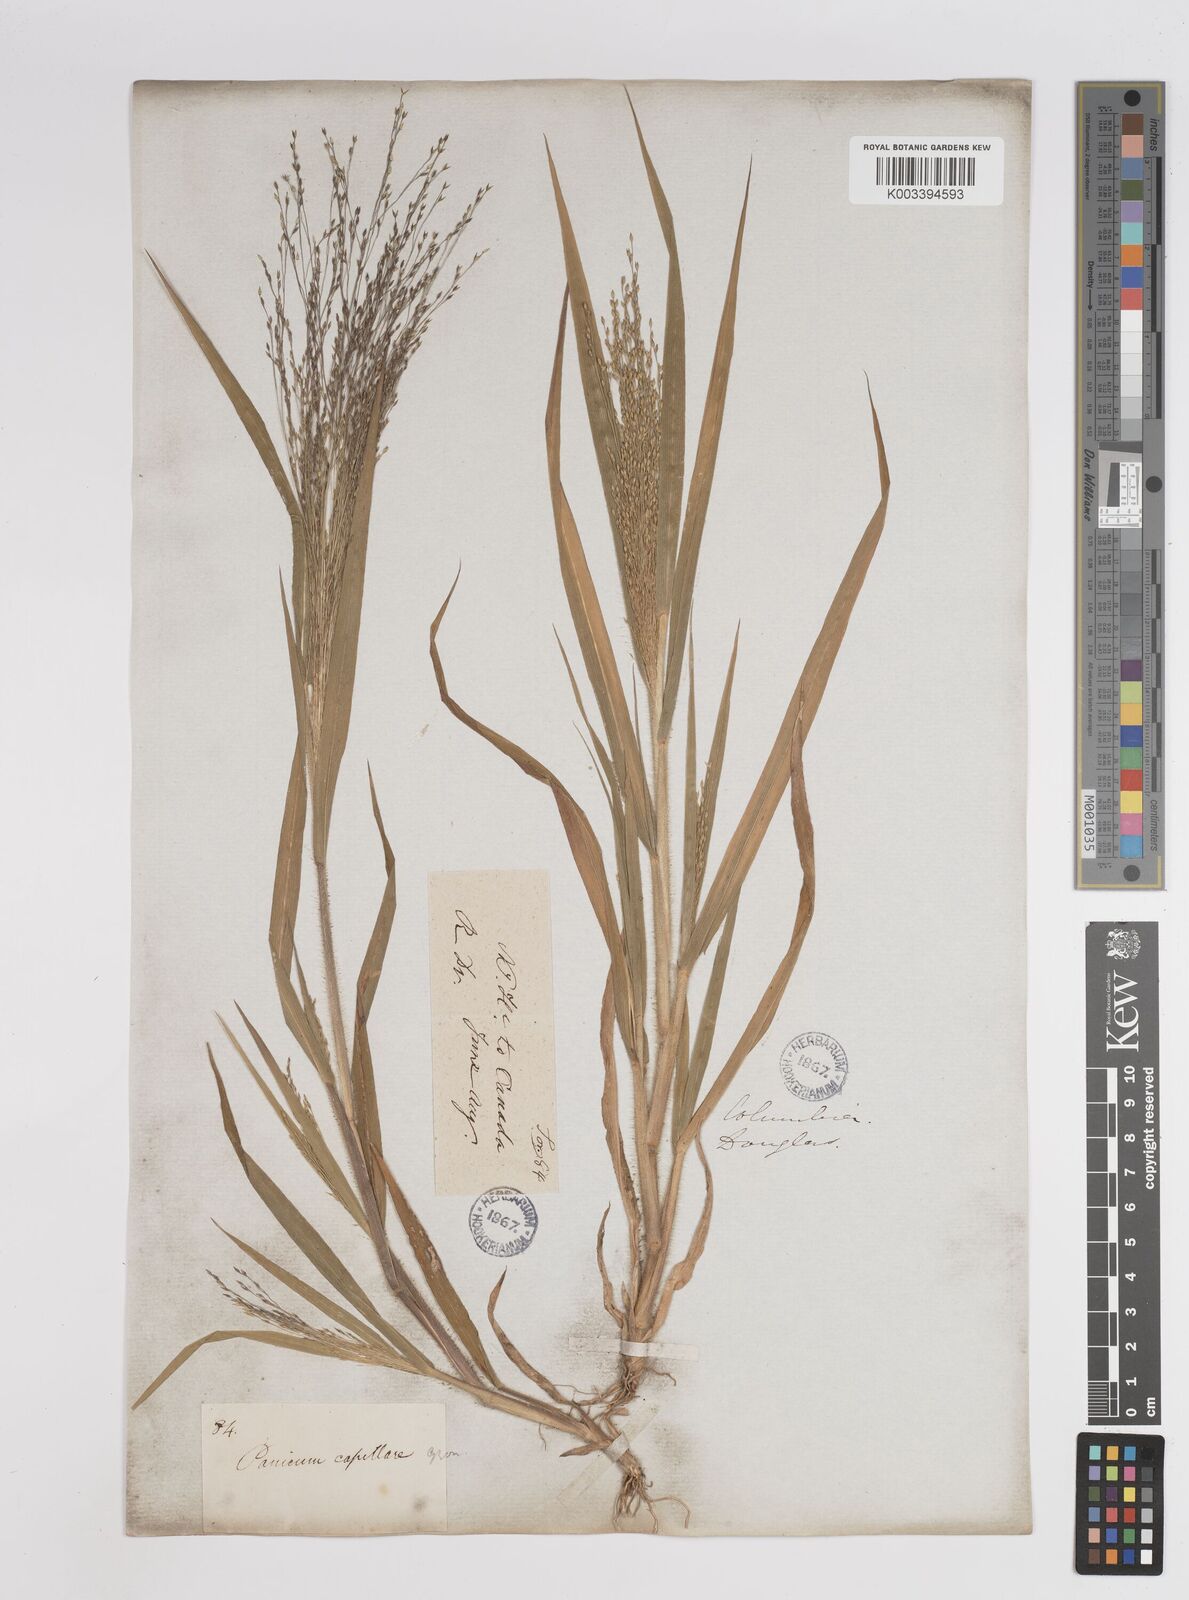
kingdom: Plantae
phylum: Tracheophyta
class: Liliopsida
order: Poales
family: Poaceae
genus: Panicum
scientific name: Panicum capillare
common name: Witch-grass
